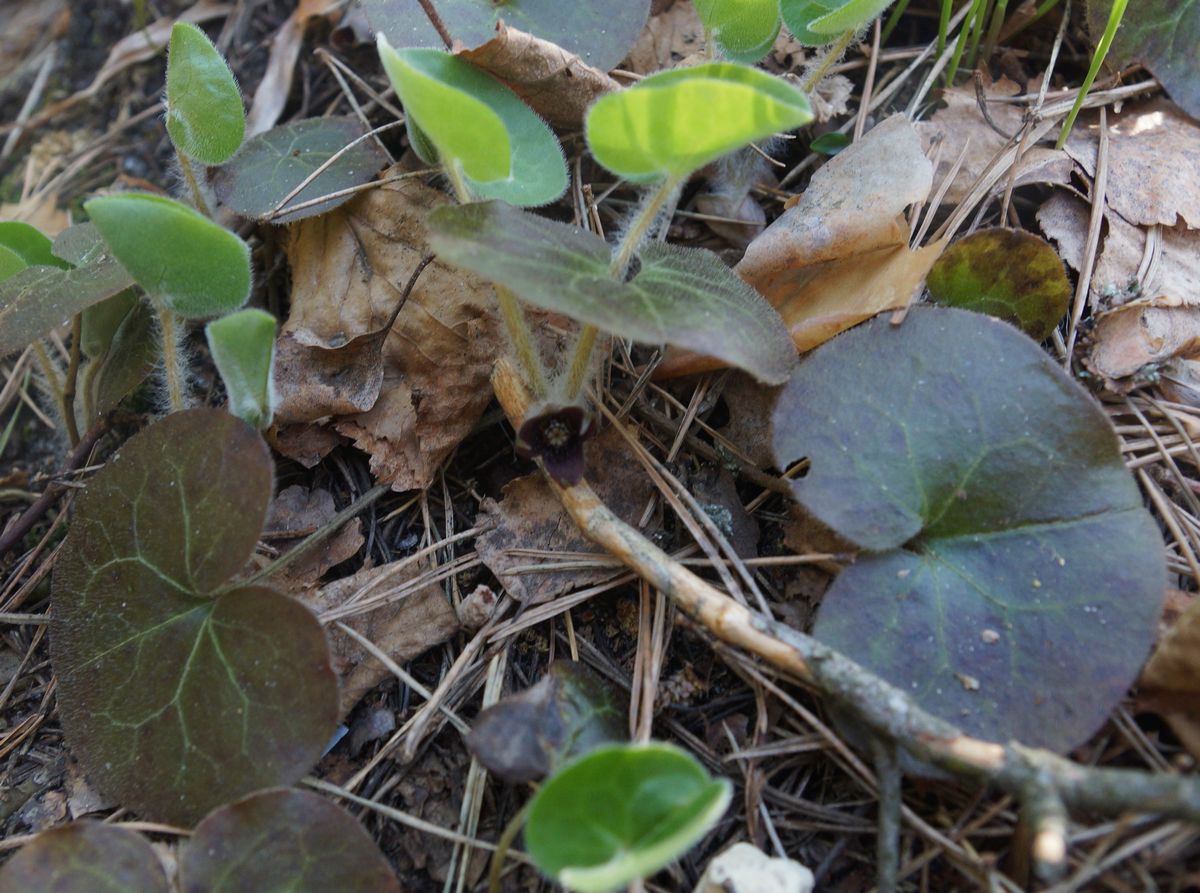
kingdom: Plantae
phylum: Tracheophyta
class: Magnoliopsida
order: Piperales
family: Aristolochiaceae
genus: Asarum
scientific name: Asarum europaeum
